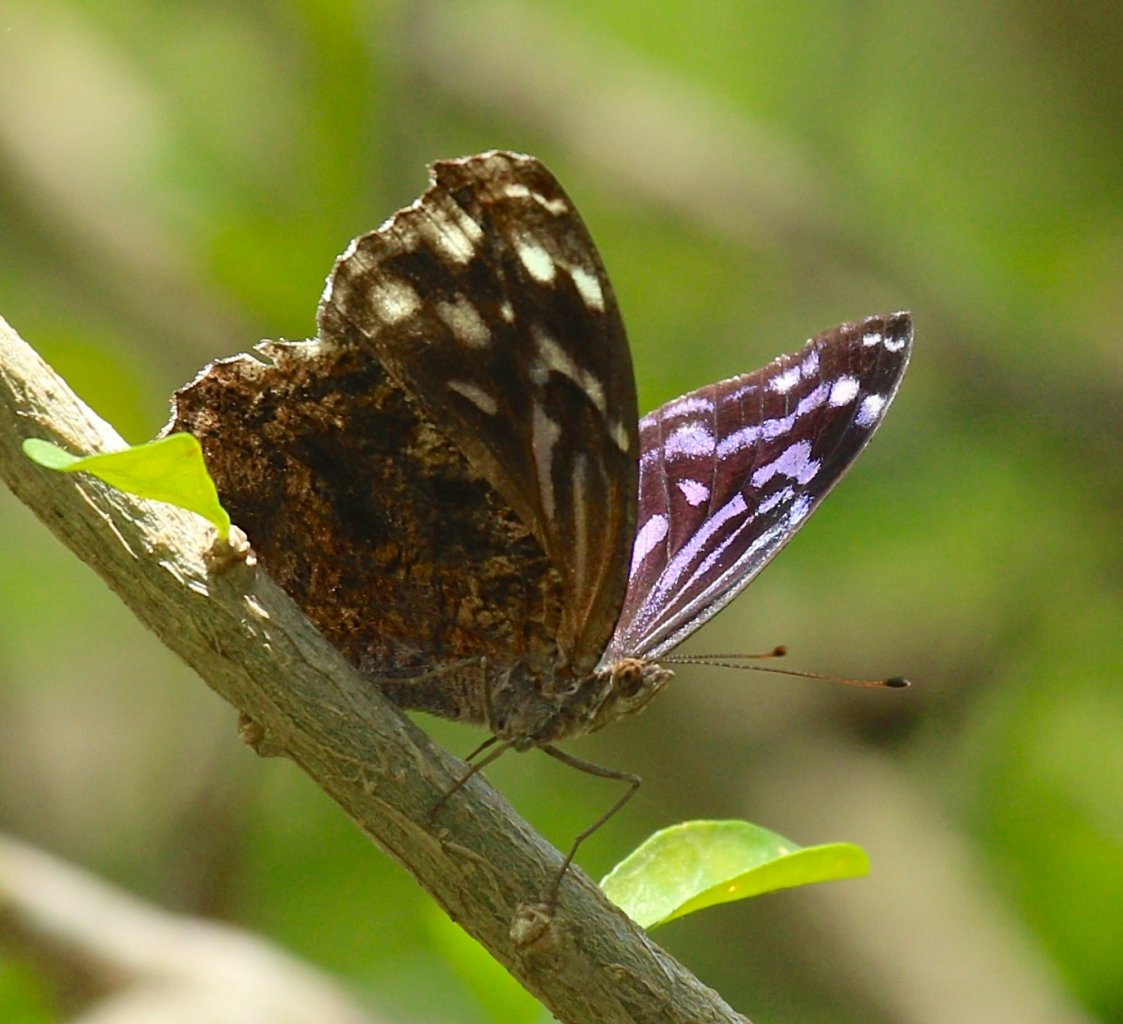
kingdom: Animalia
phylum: Arthropoda
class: Insecta
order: Lepidoptera
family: Nymphalidae
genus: Myscelia
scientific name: Myscelia ethusa
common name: Mexican Bluewing
